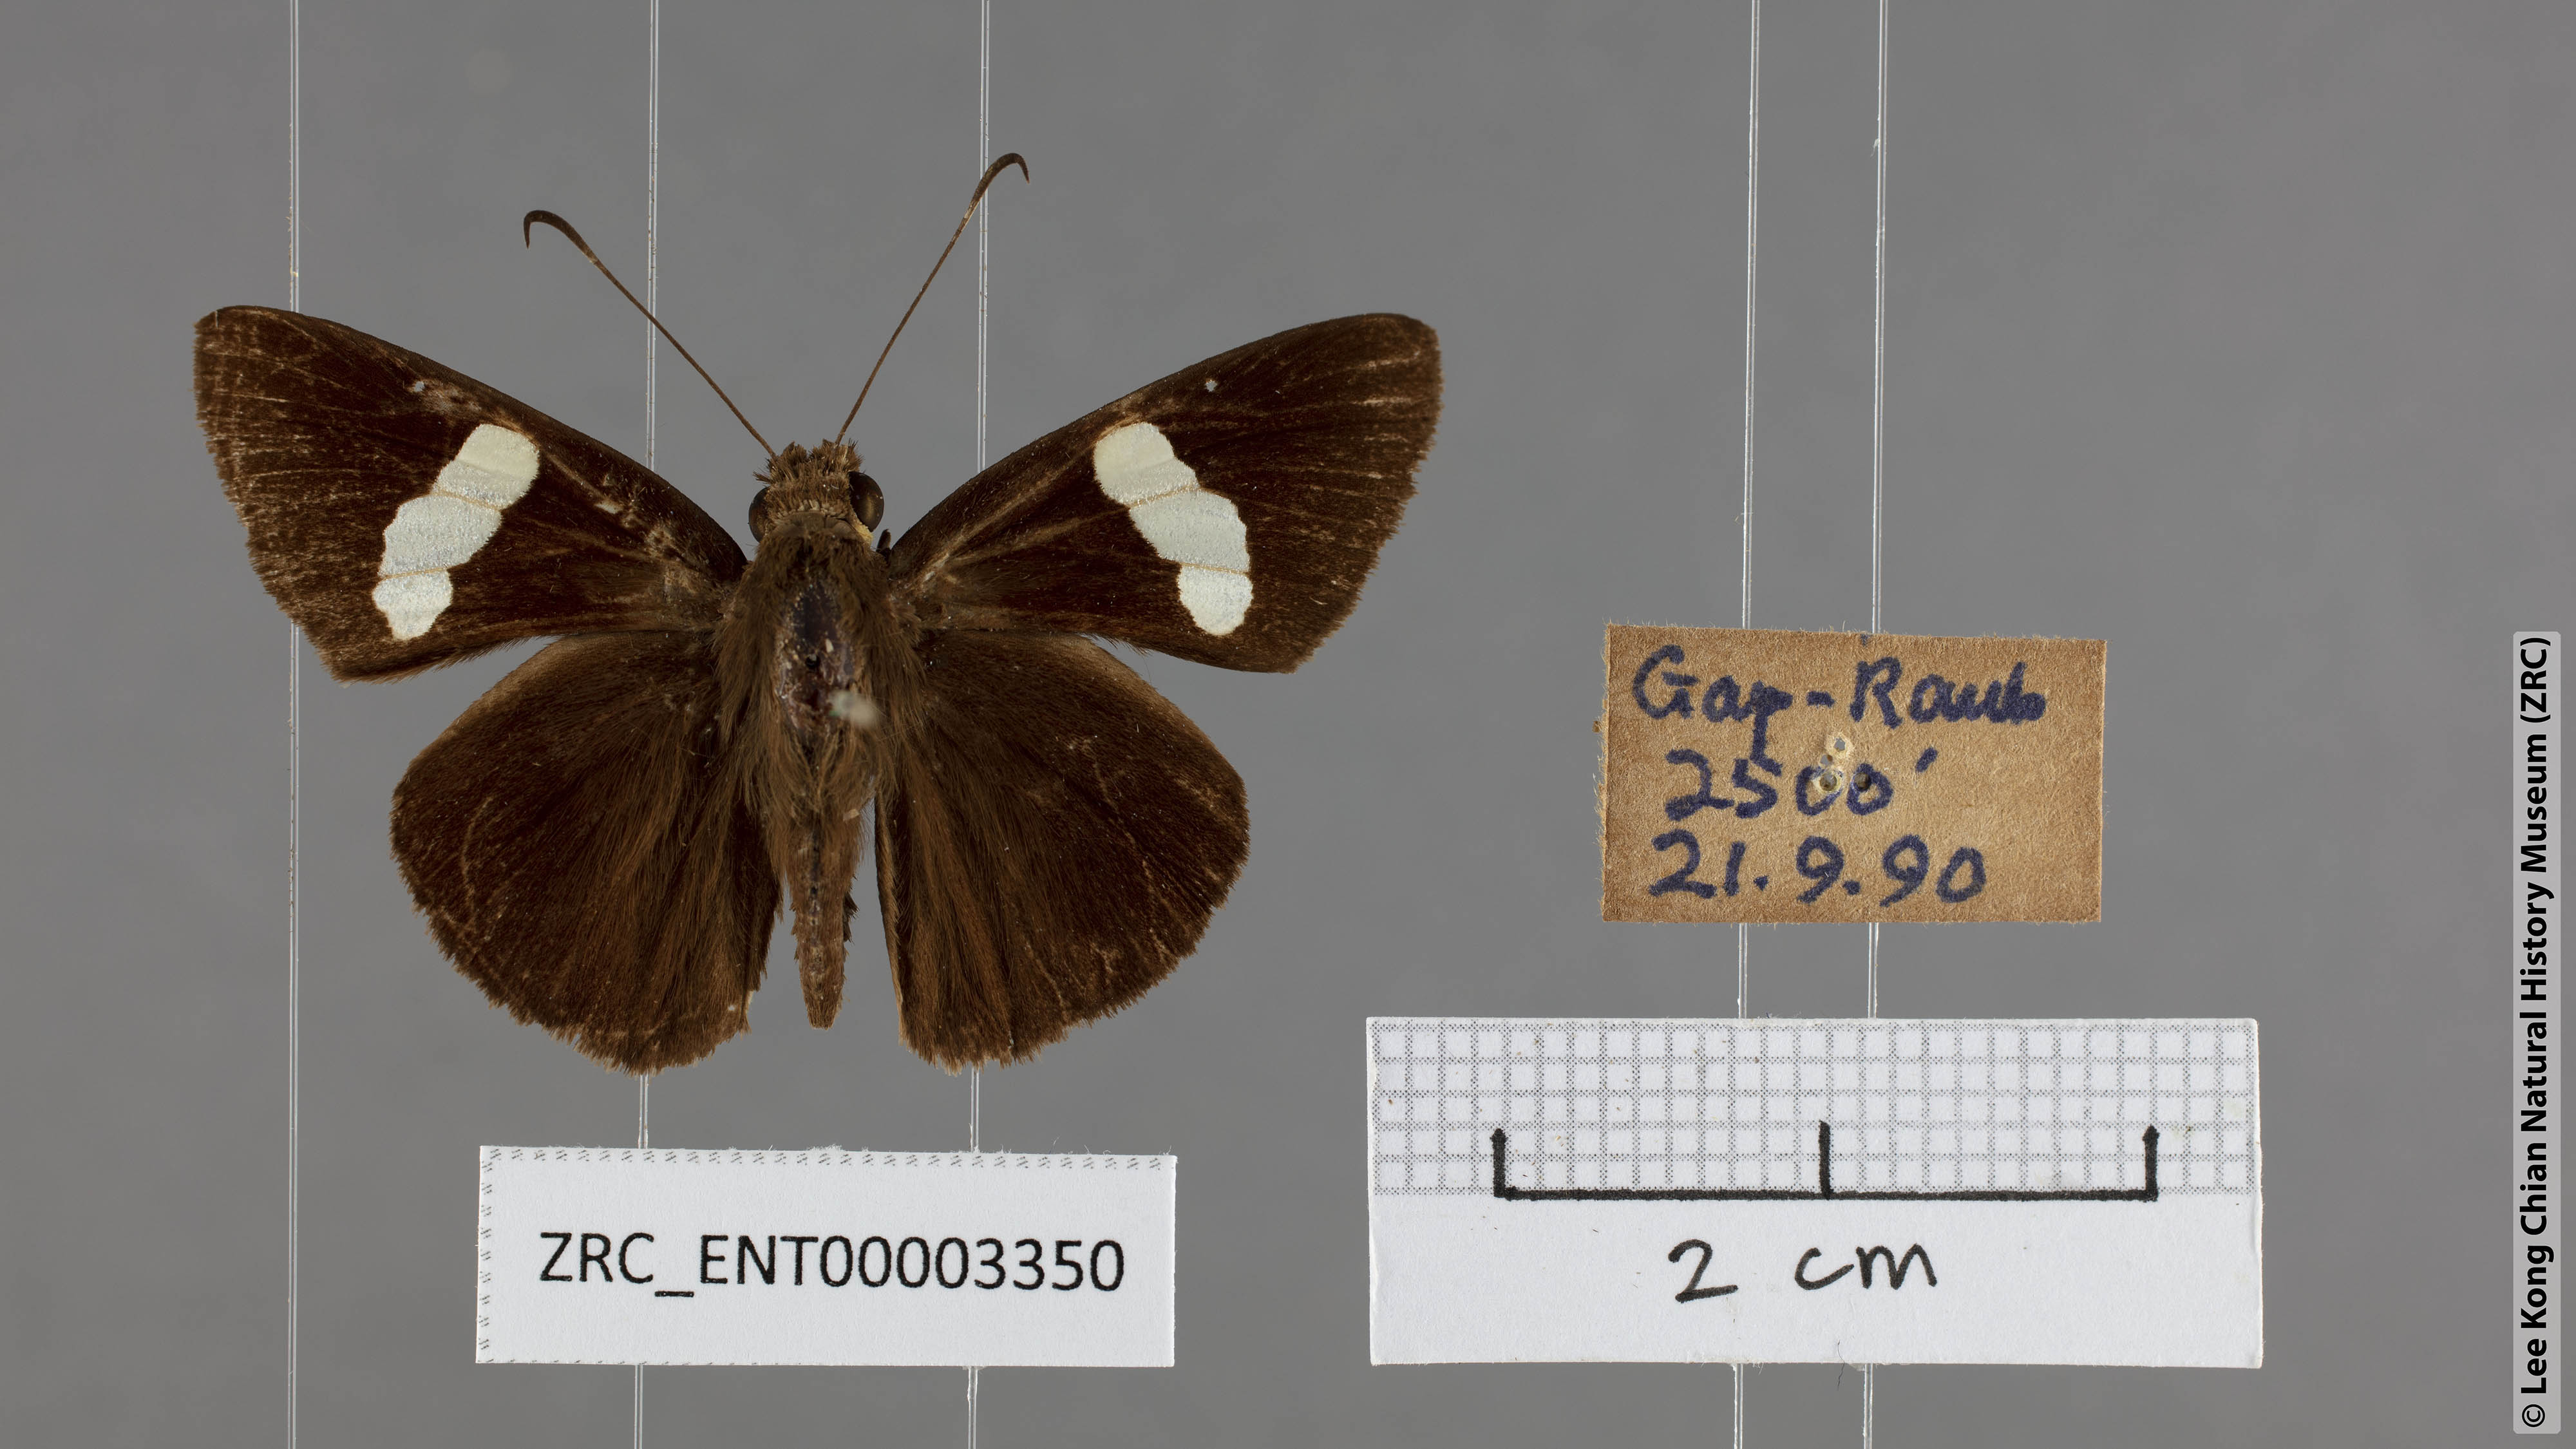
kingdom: Animalia
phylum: Arthropoda
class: Insecta
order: Lepidoptera
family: Hesperiidae
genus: Notocrypta
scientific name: Notocrypta clavata
